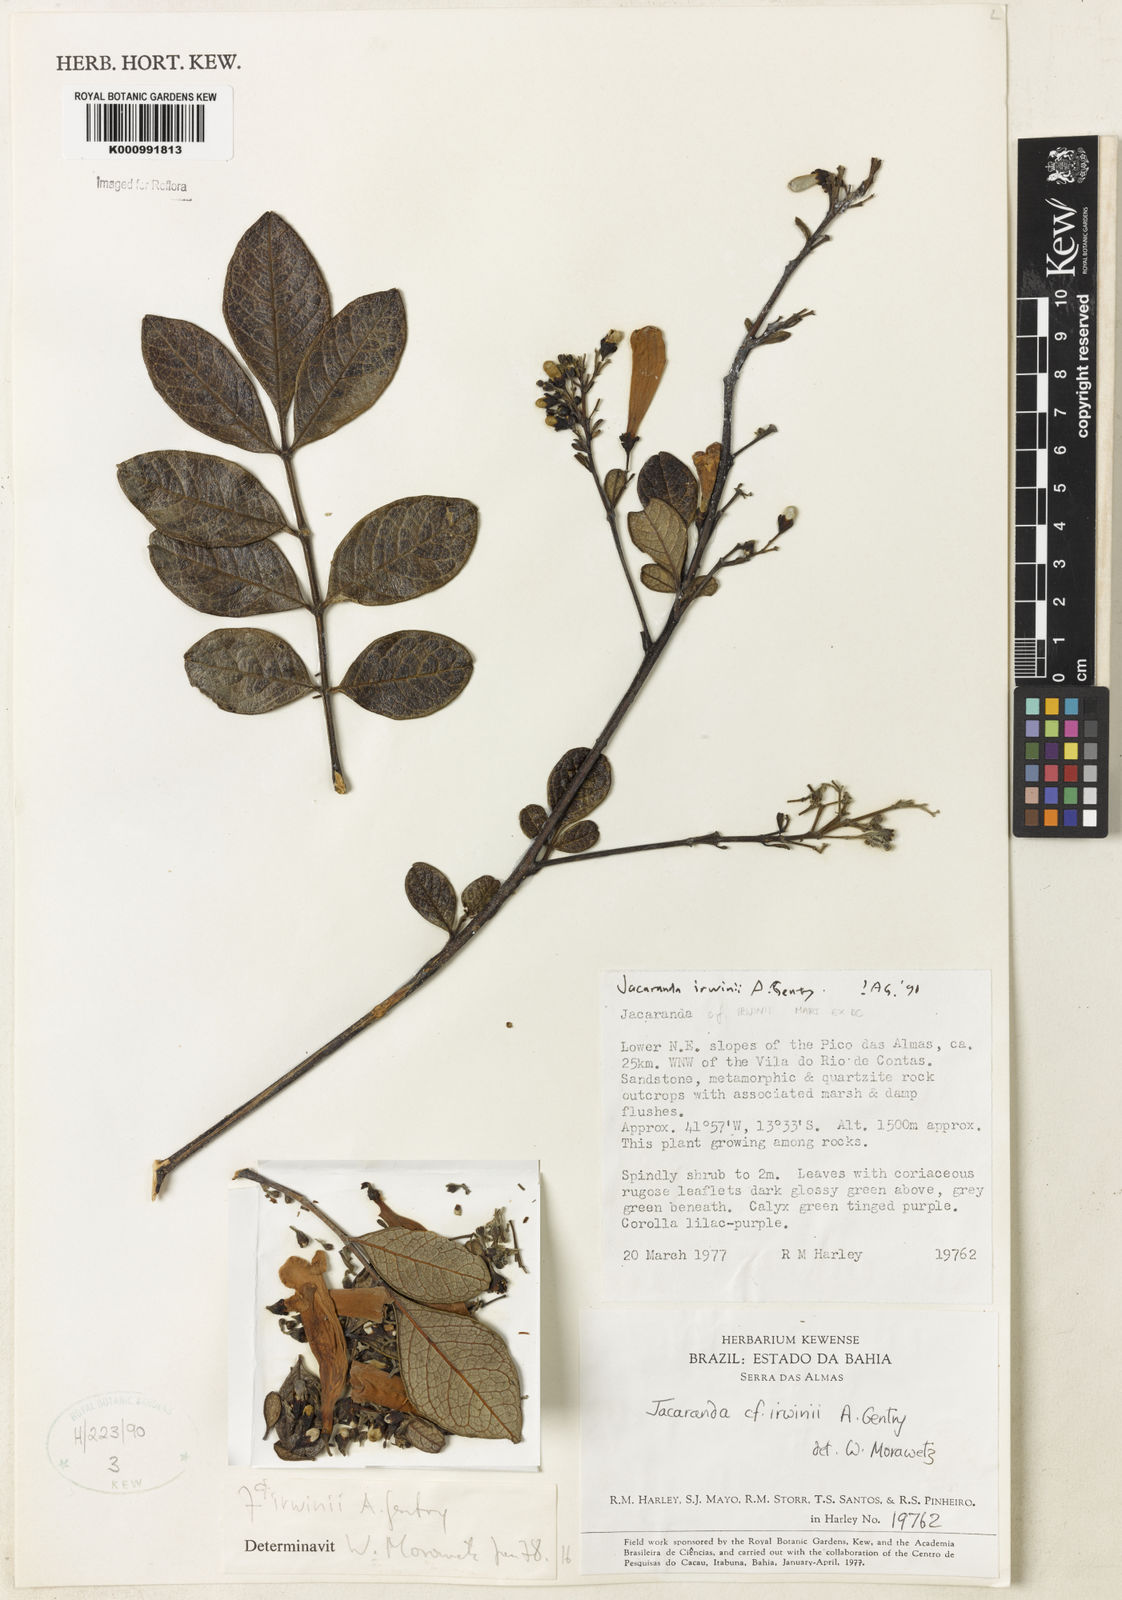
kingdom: Plantae
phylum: Tracheophyta
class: Magnoliopsida
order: Lamiales
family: Bignoniaceae
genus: Jacaranda
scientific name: Jacaranda irwinii
